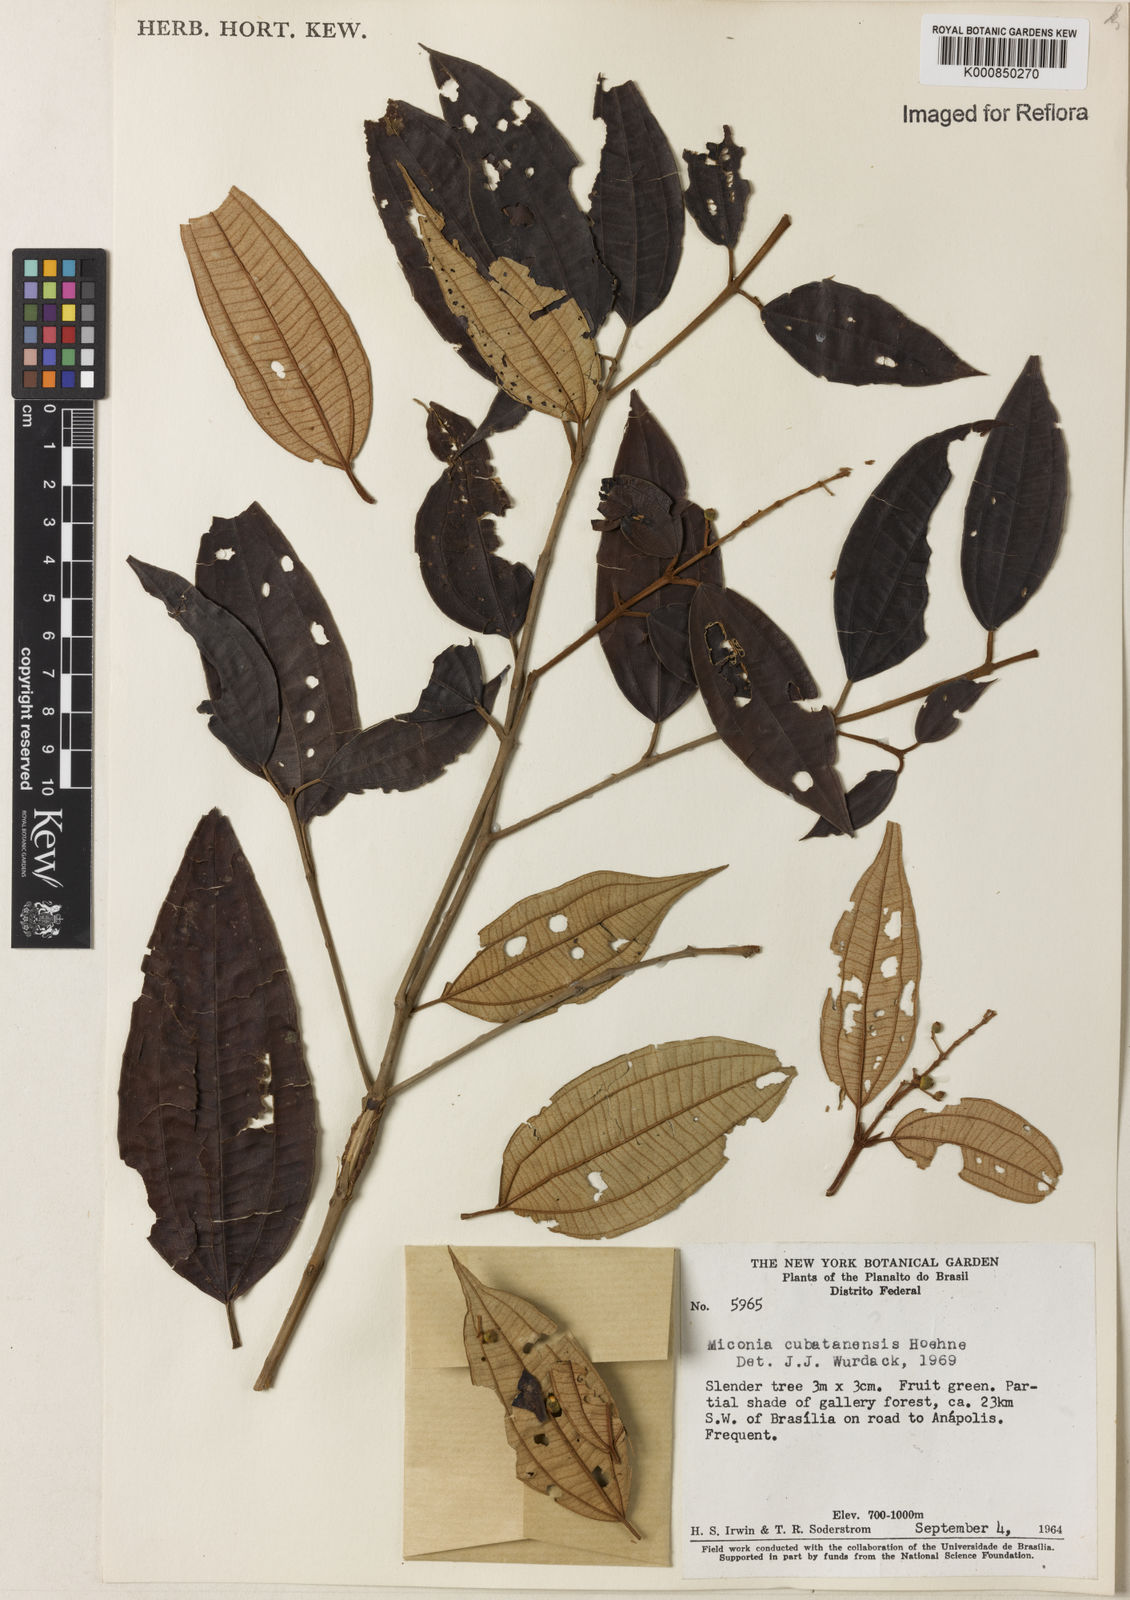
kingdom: Plantae
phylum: Tracheophyta
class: Magnoliopsida
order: Myrtales
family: Melastomataceae
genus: Miconia
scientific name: Miconia cubatanensis
